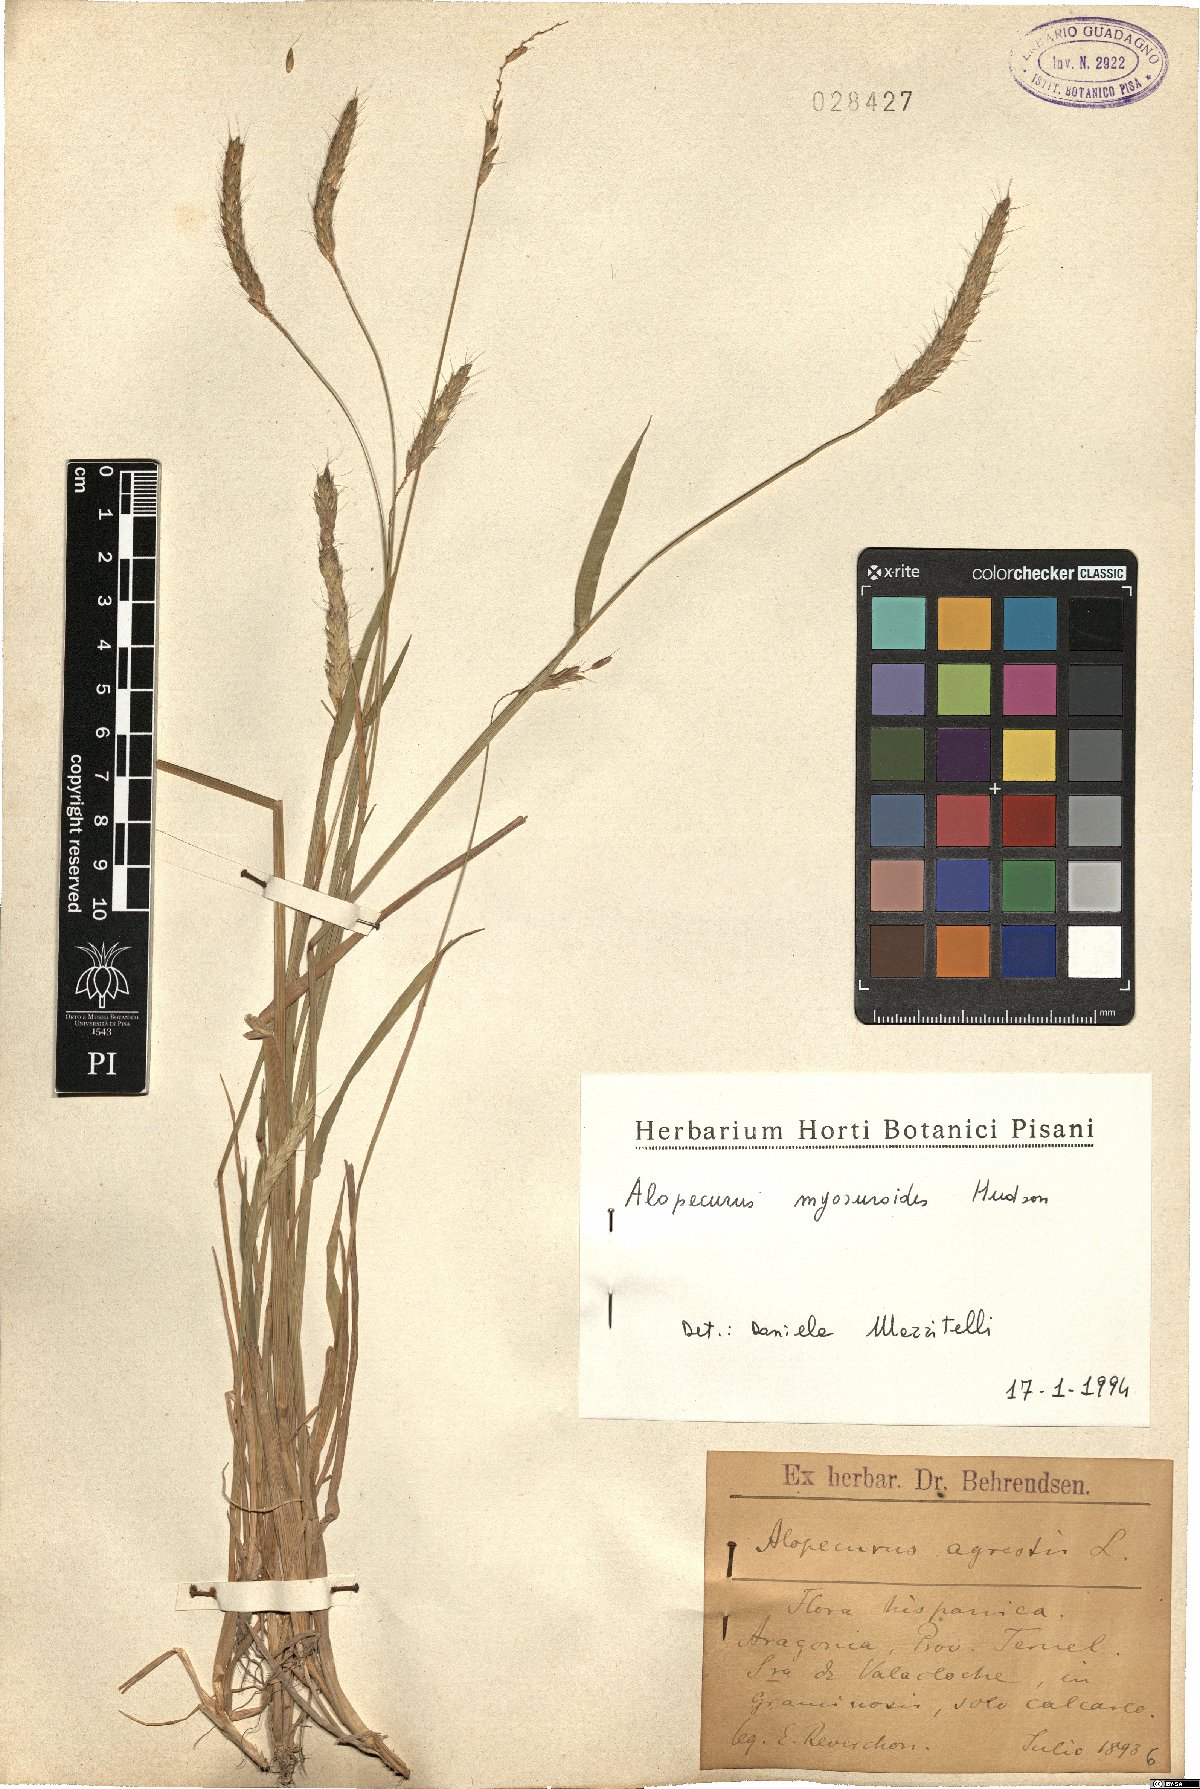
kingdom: Plantae
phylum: Tracheophyta
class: Liliopsida
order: Poales
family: Poaceae
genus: Alopecurus
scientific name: Alopecurus myosuroides
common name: Black-grass
